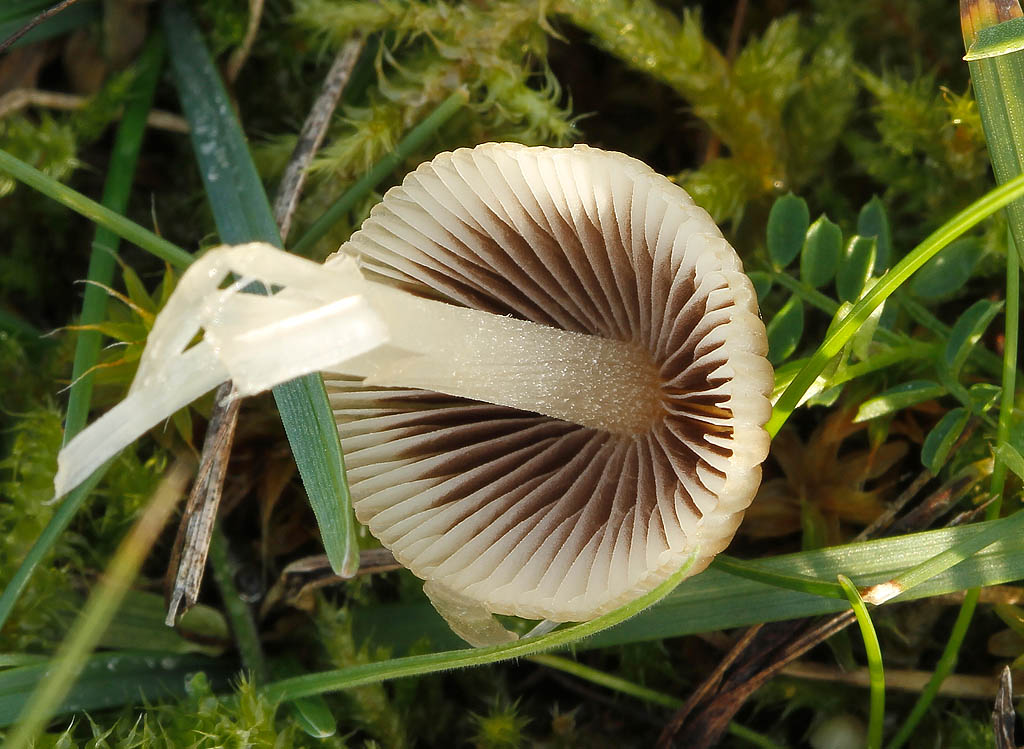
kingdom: Fungi
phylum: Basidiomycota
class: Agaricomycetes
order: Agaricales
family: Psathyrellaceae
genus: Tulosesus
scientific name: Tulosesus subimpatiens
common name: tøvende blækhat
